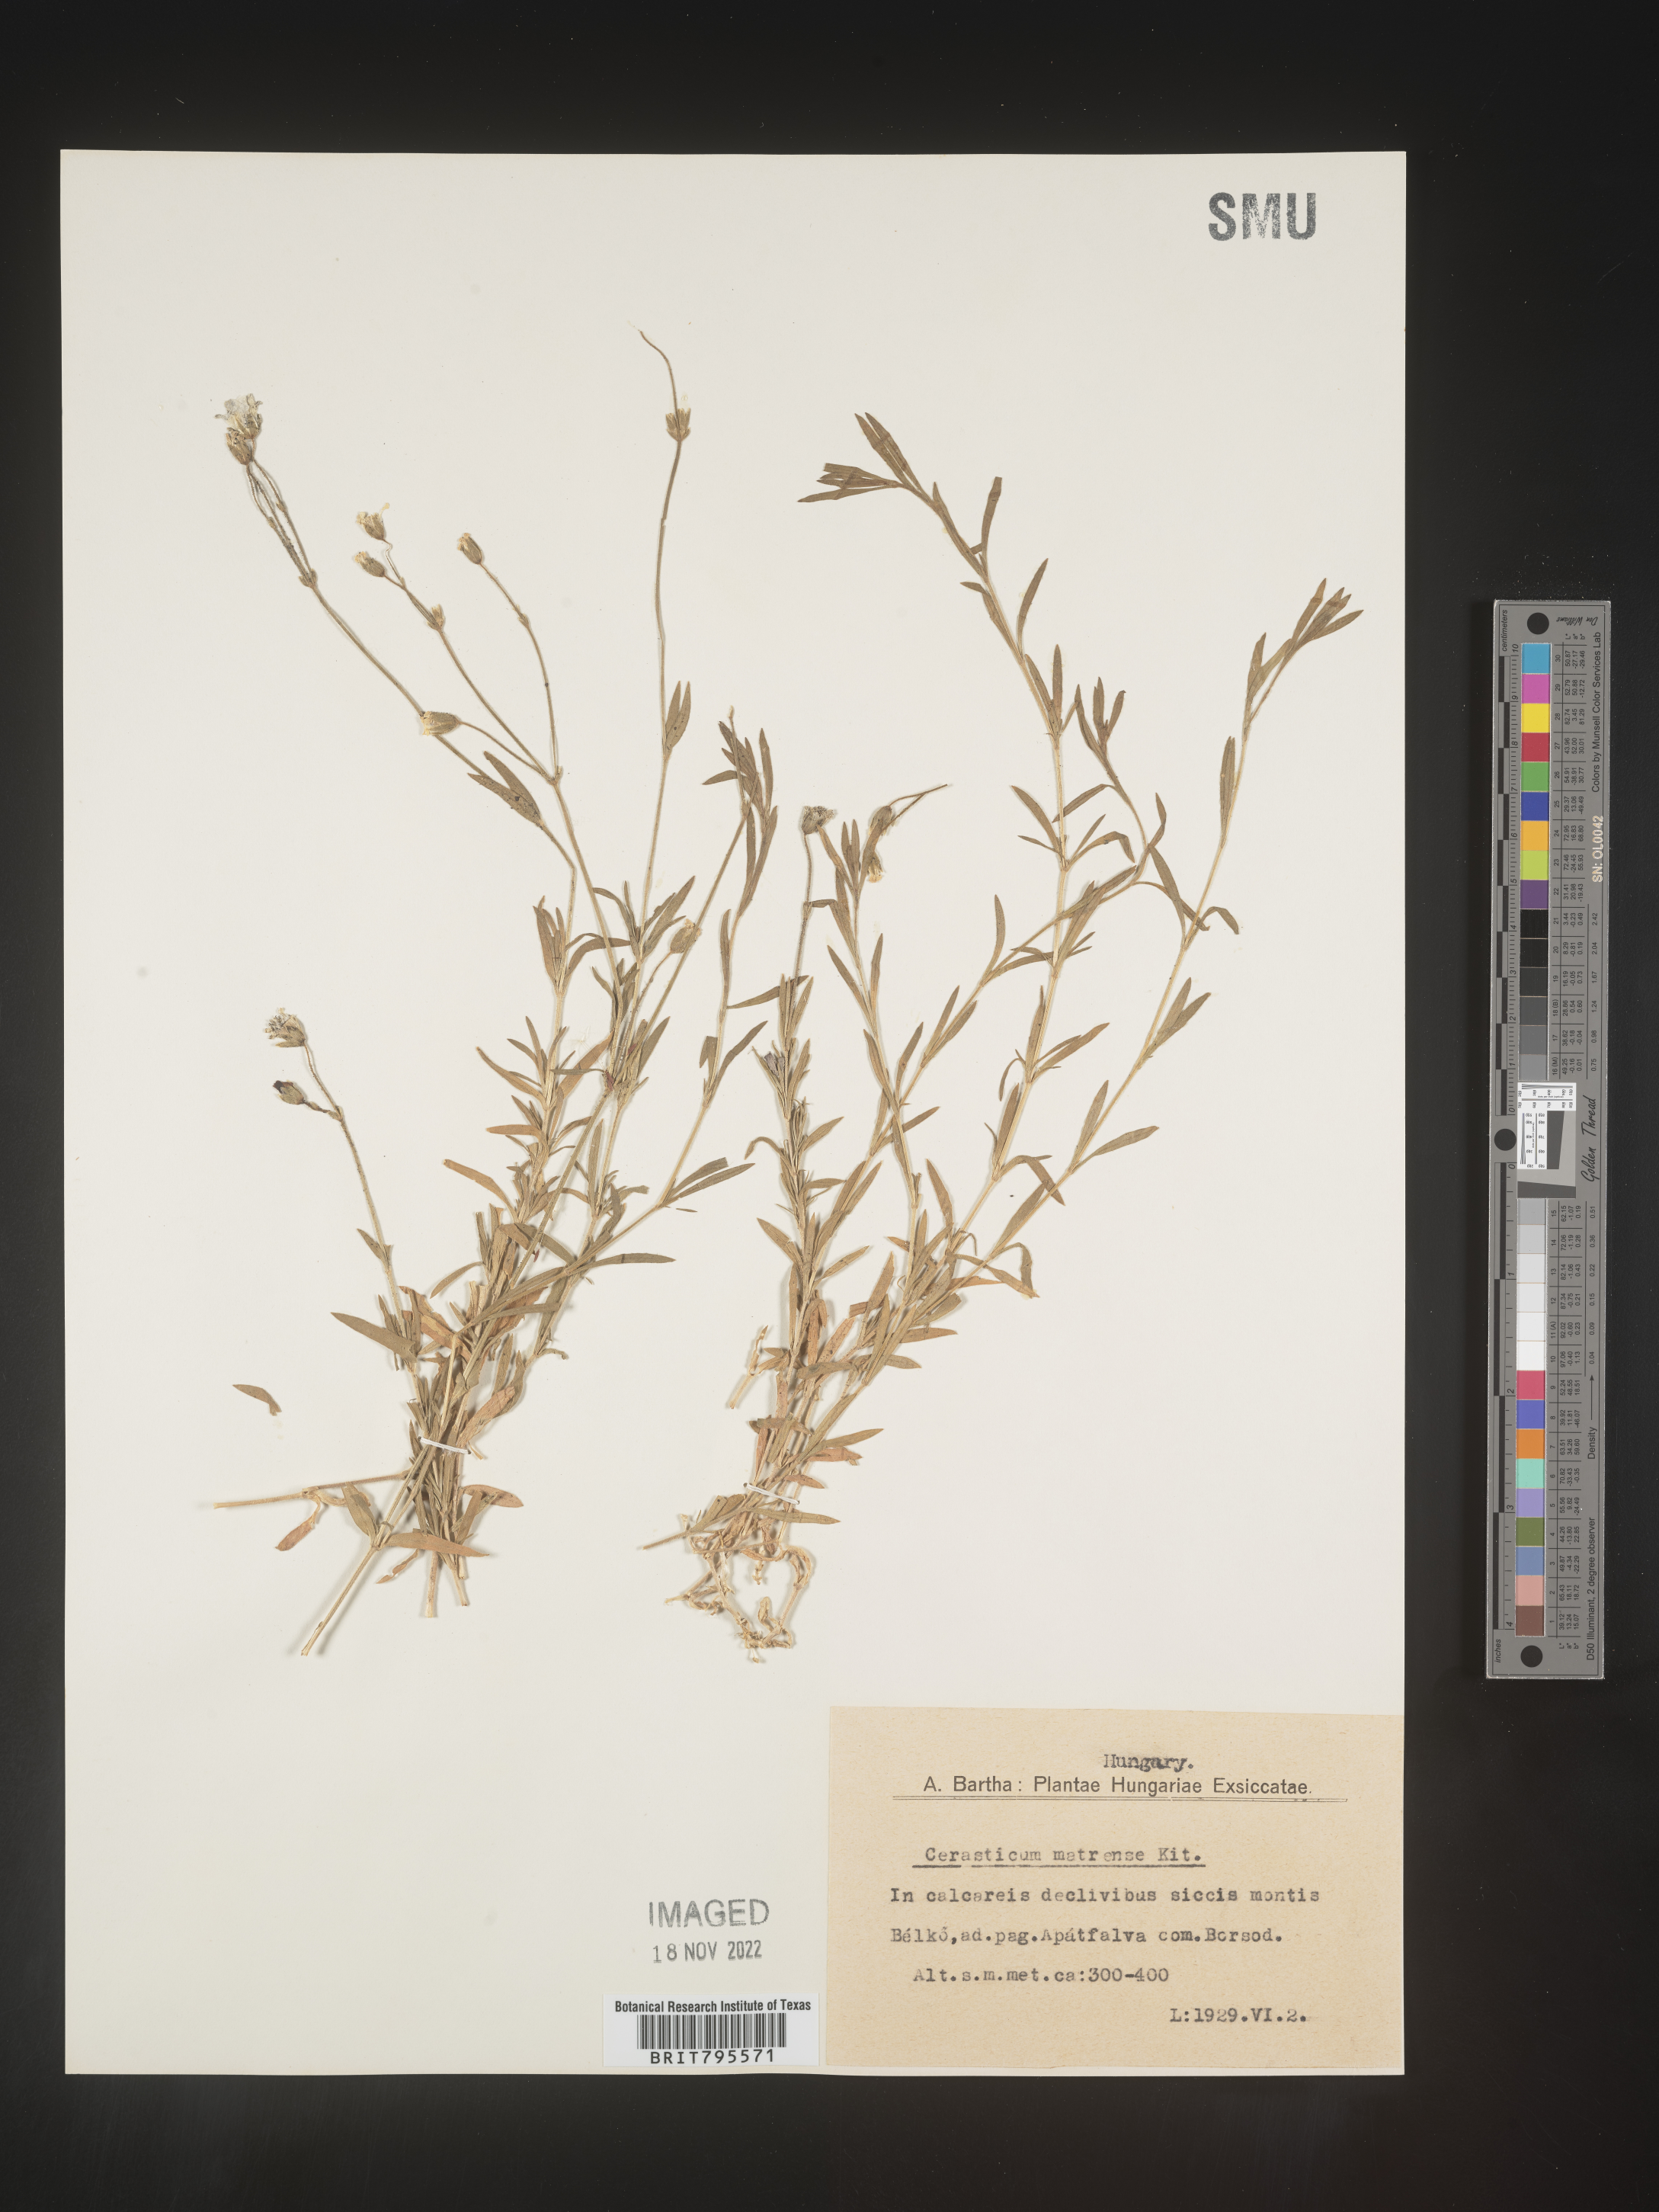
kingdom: Plantae
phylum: Tracheophyta
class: Magnoliopsida
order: Caryophyllales
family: Caryophyllaceae
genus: Cerastium
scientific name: Cerastium
